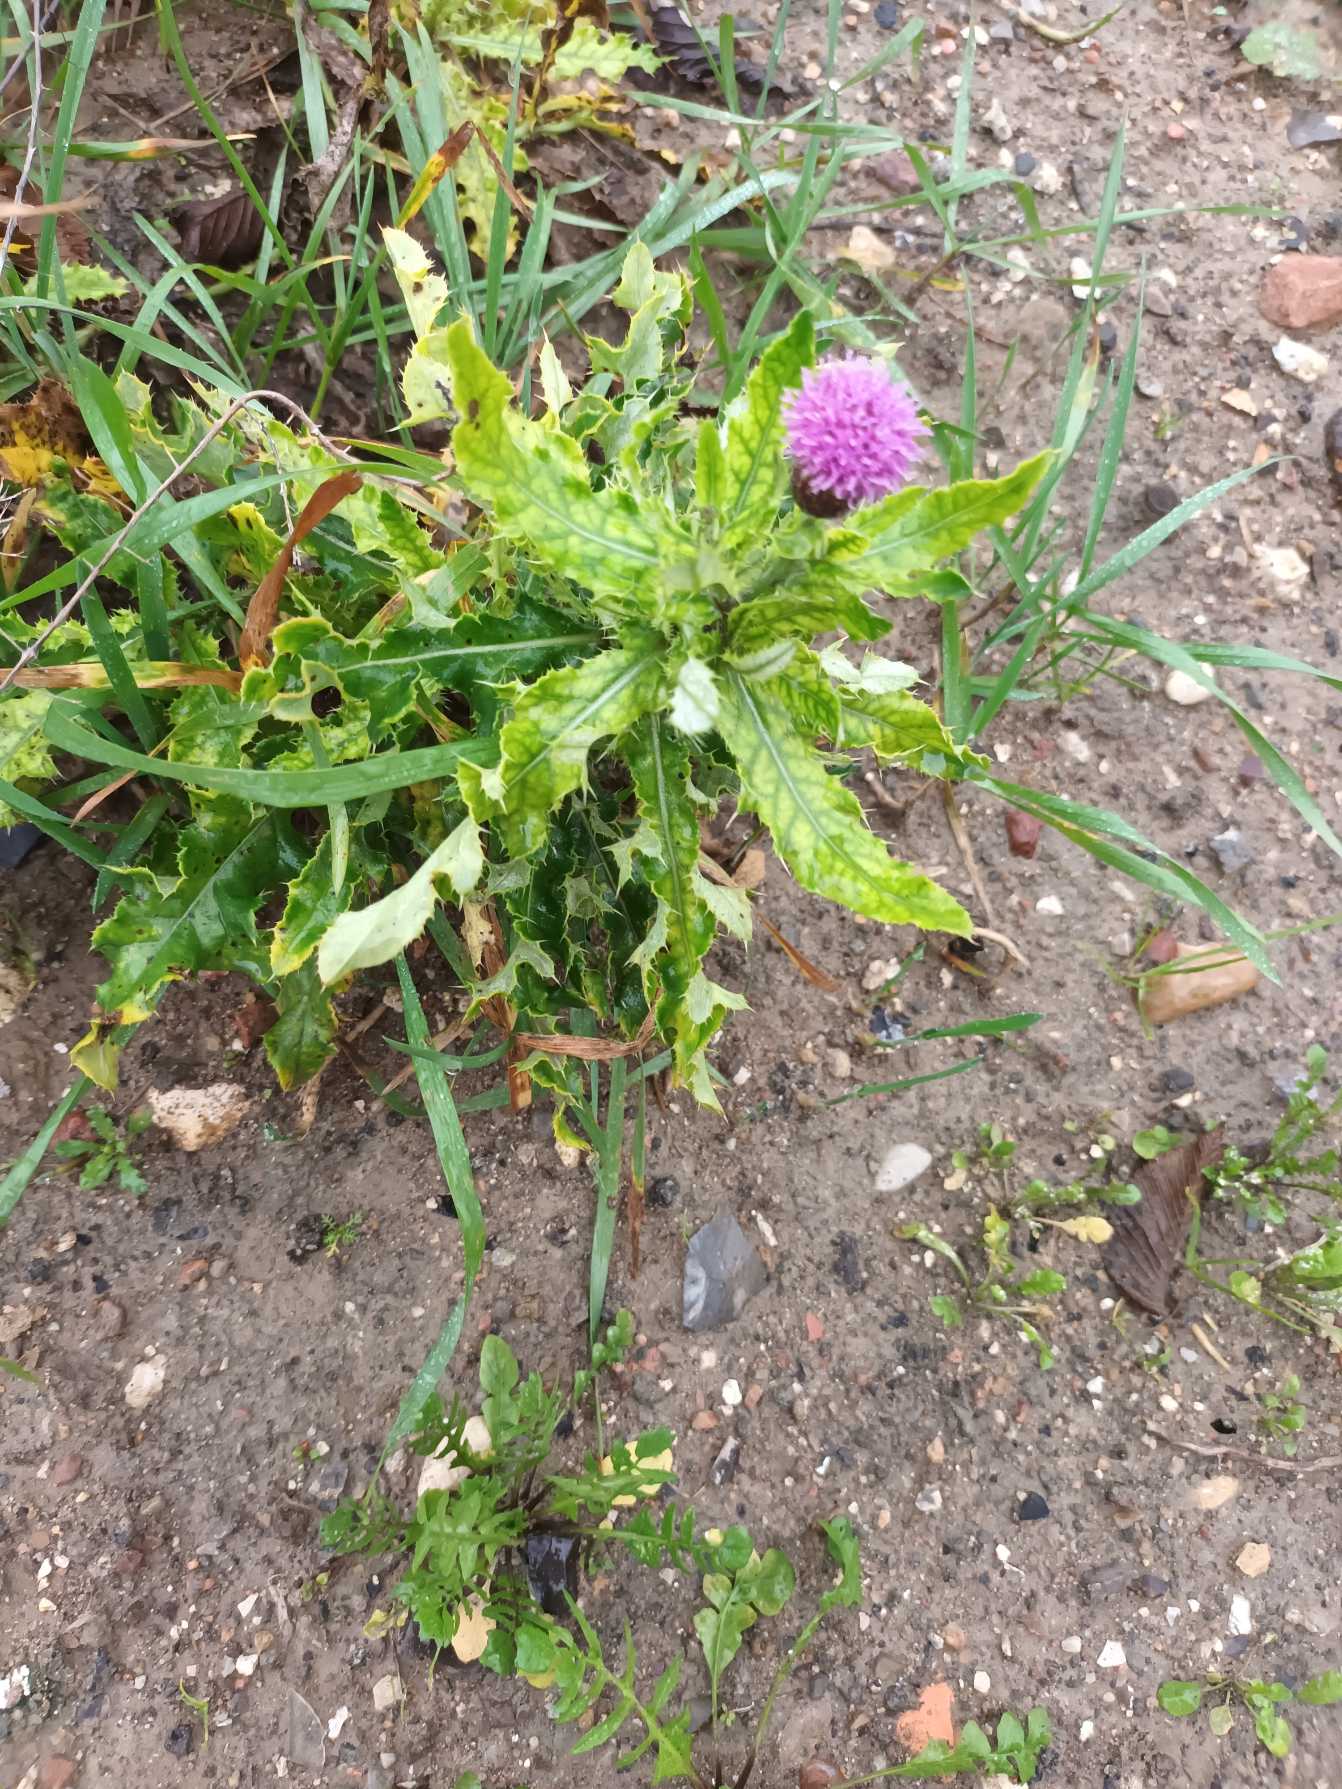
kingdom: Plantae
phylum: Tracheophyta
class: Magnoliopsida
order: Asterales
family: Asteraceae
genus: Cirsium
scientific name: Cirsium arvense
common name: Ager-tidsel
